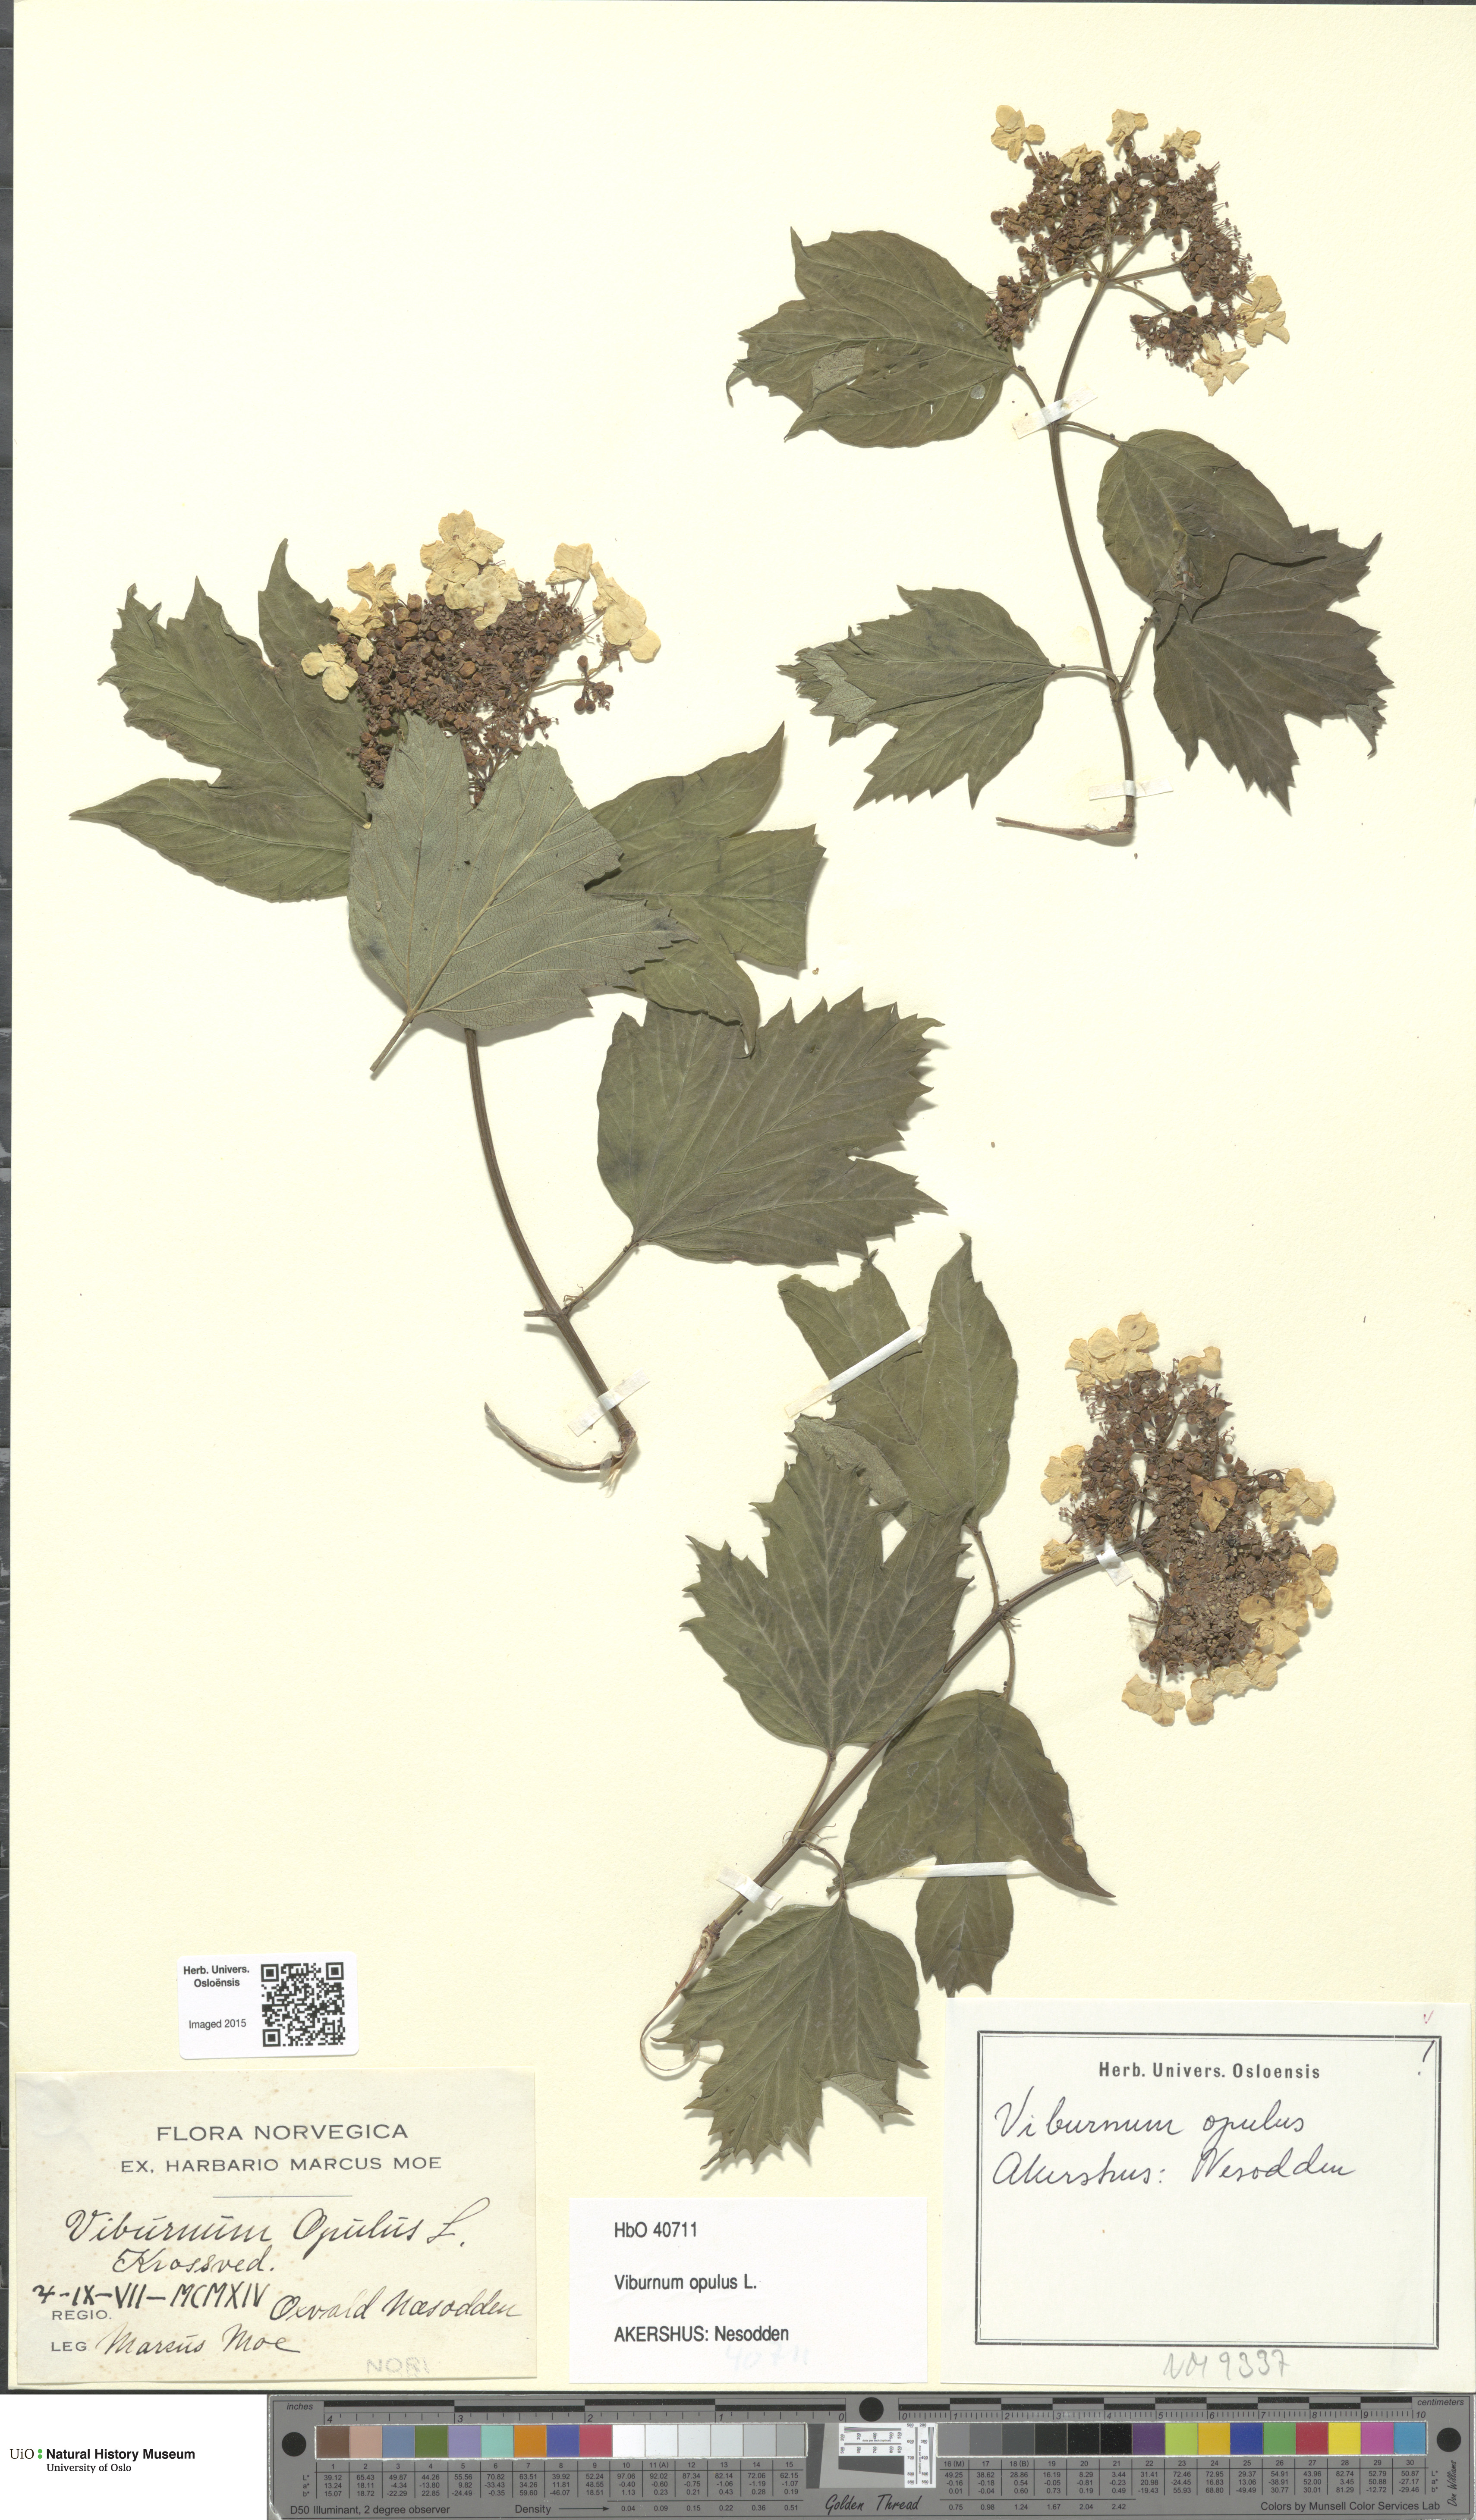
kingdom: Plantae
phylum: Tracheophyta
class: Magnoliopsida
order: Dipsacales
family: Viburnaceae
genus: Viburnum
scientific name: Viburnum opulus
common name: Guelder-rose
